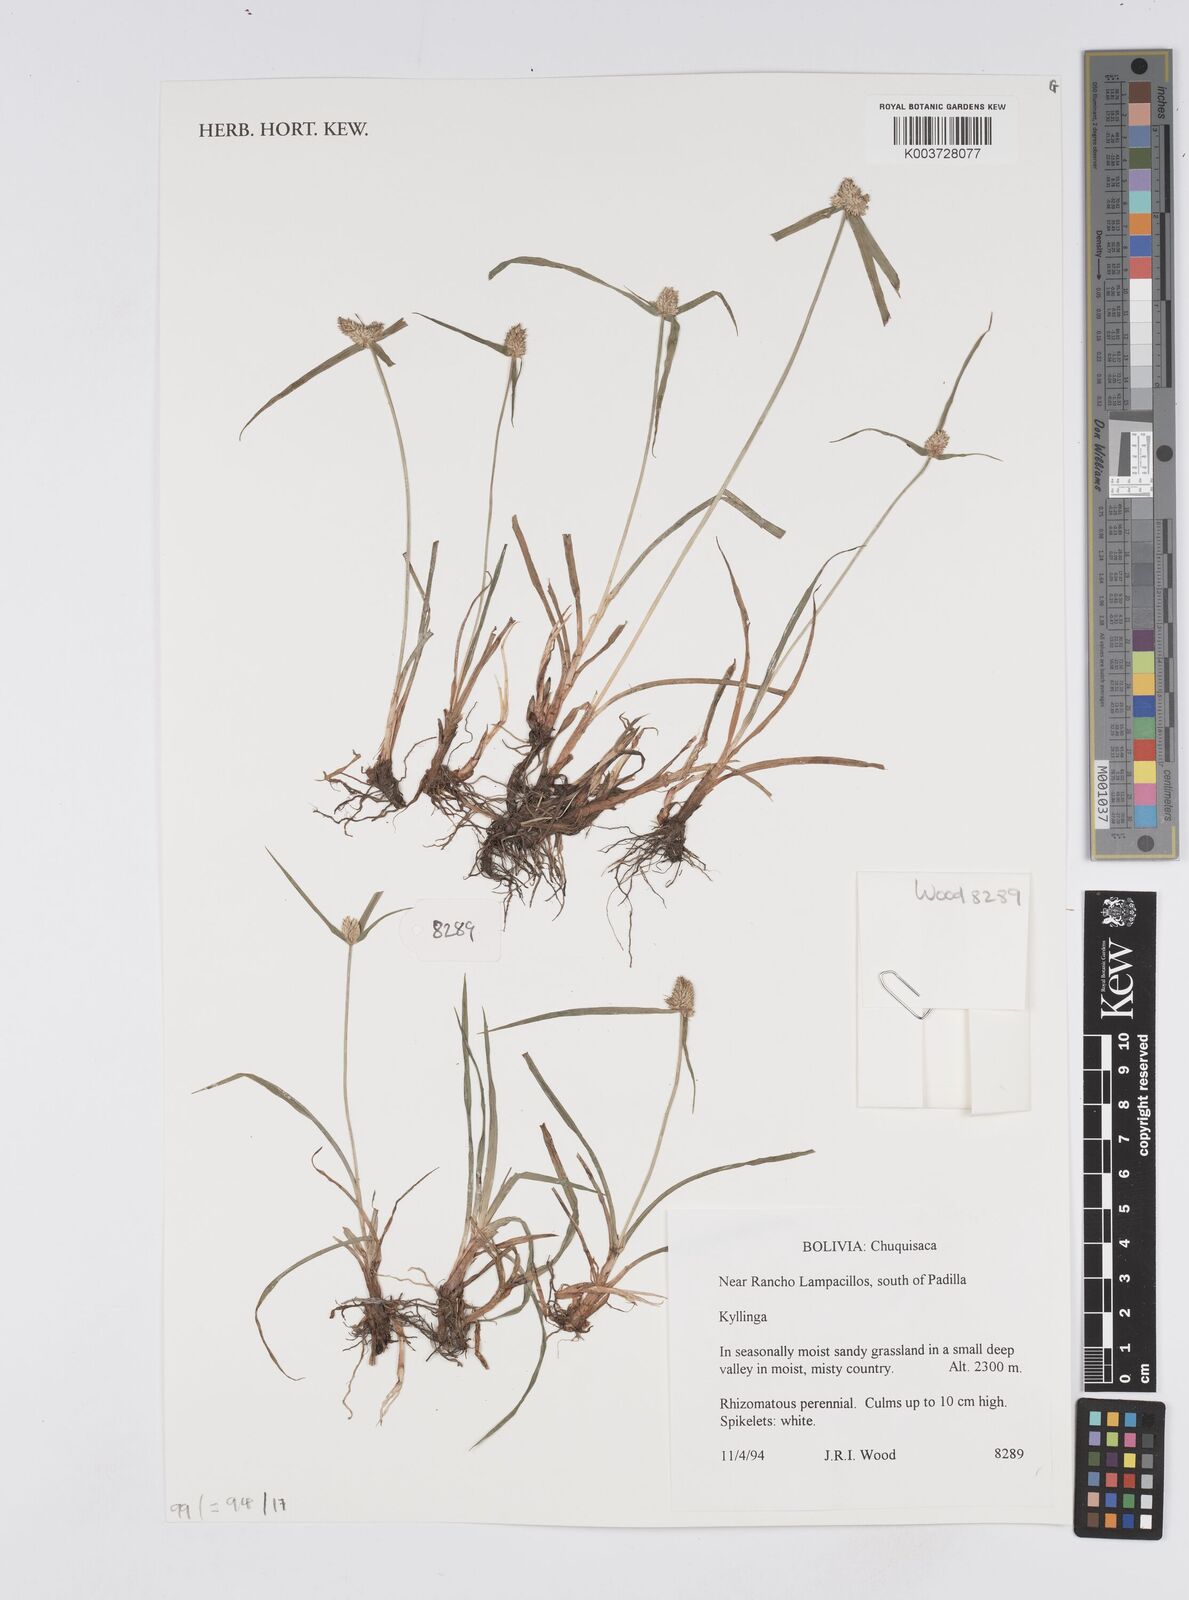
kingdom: Plantae
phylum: Tracheophyta
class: Liliopsida
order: Poales
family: Cyperaceae
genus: Cyperus
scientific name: Cyperus
